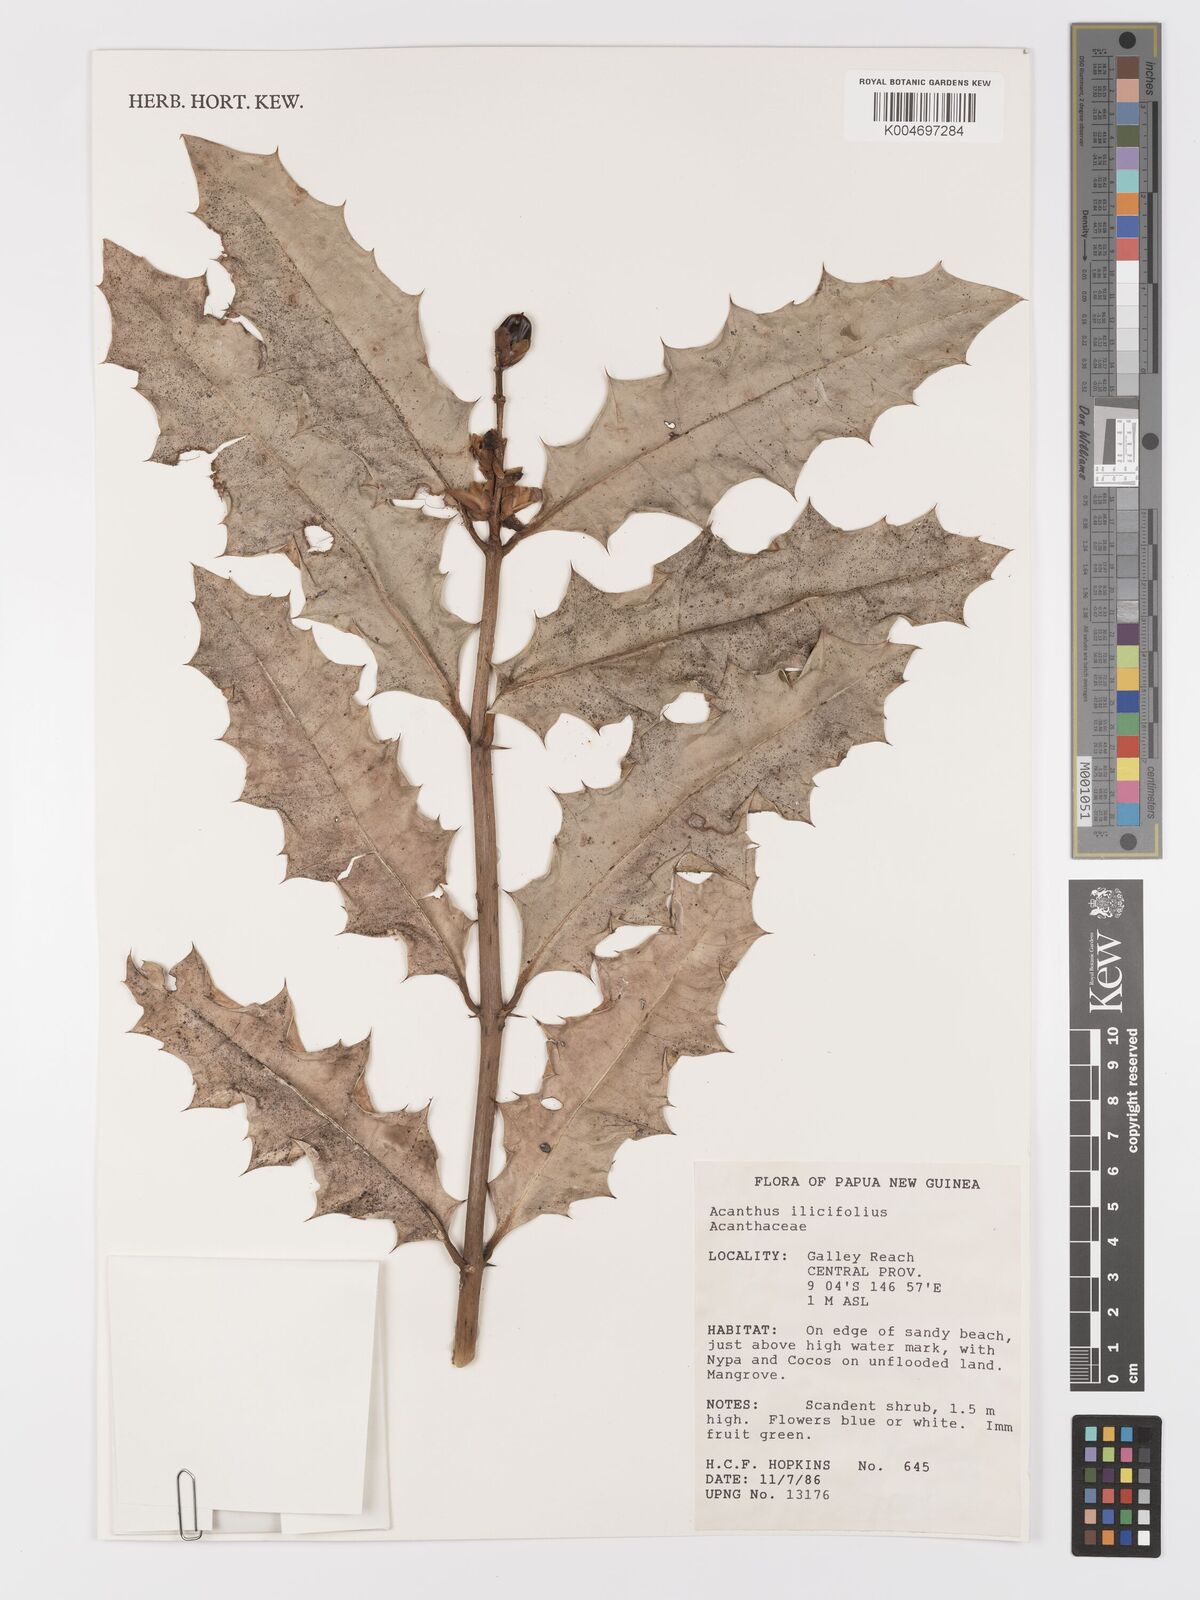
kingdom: Plantae
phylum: Tracheophyta
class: Magnoliopsida
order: Lamiales
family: Acanthaceae
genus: Acanthus
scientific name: Acanthus ilicifolius
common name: Holy mangrove
